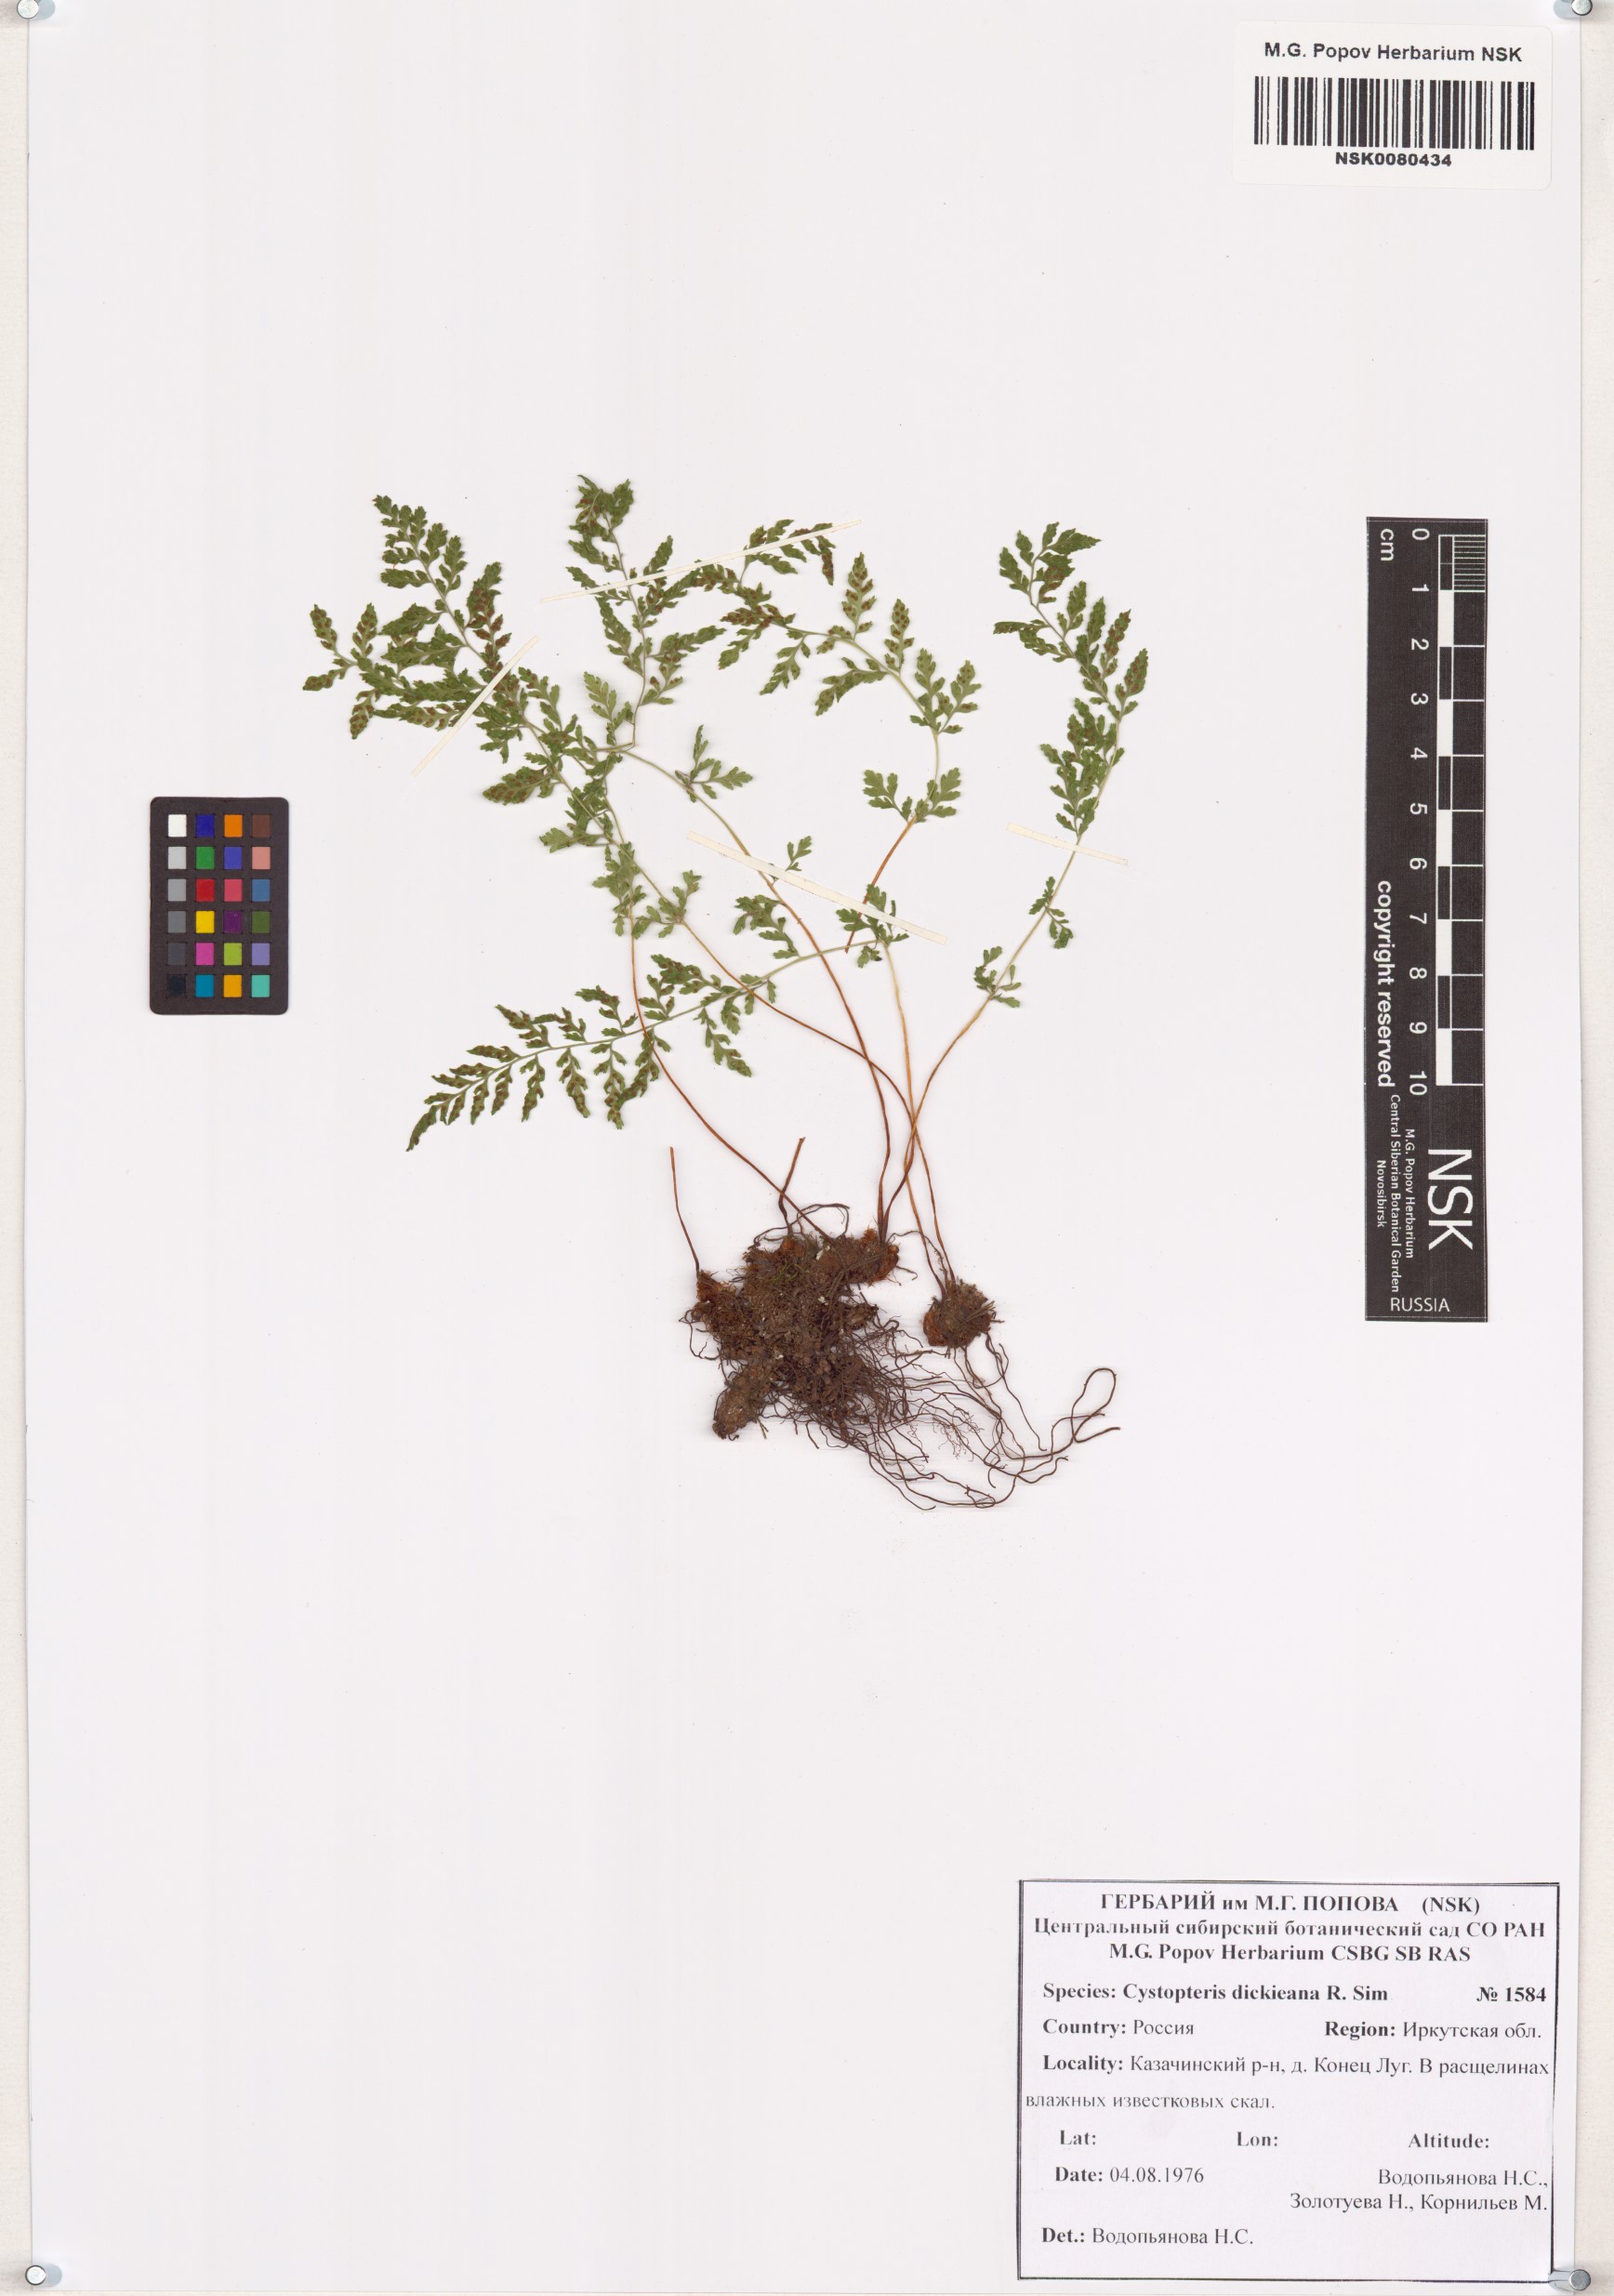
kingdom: Plantae
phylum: Tracheophyta
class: Polypodiopsida
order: Polypodiales
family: Cystopteridaceae
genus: Cystopteris
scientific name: Cystopteris dickieana
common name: Dickie's bladder-fern
